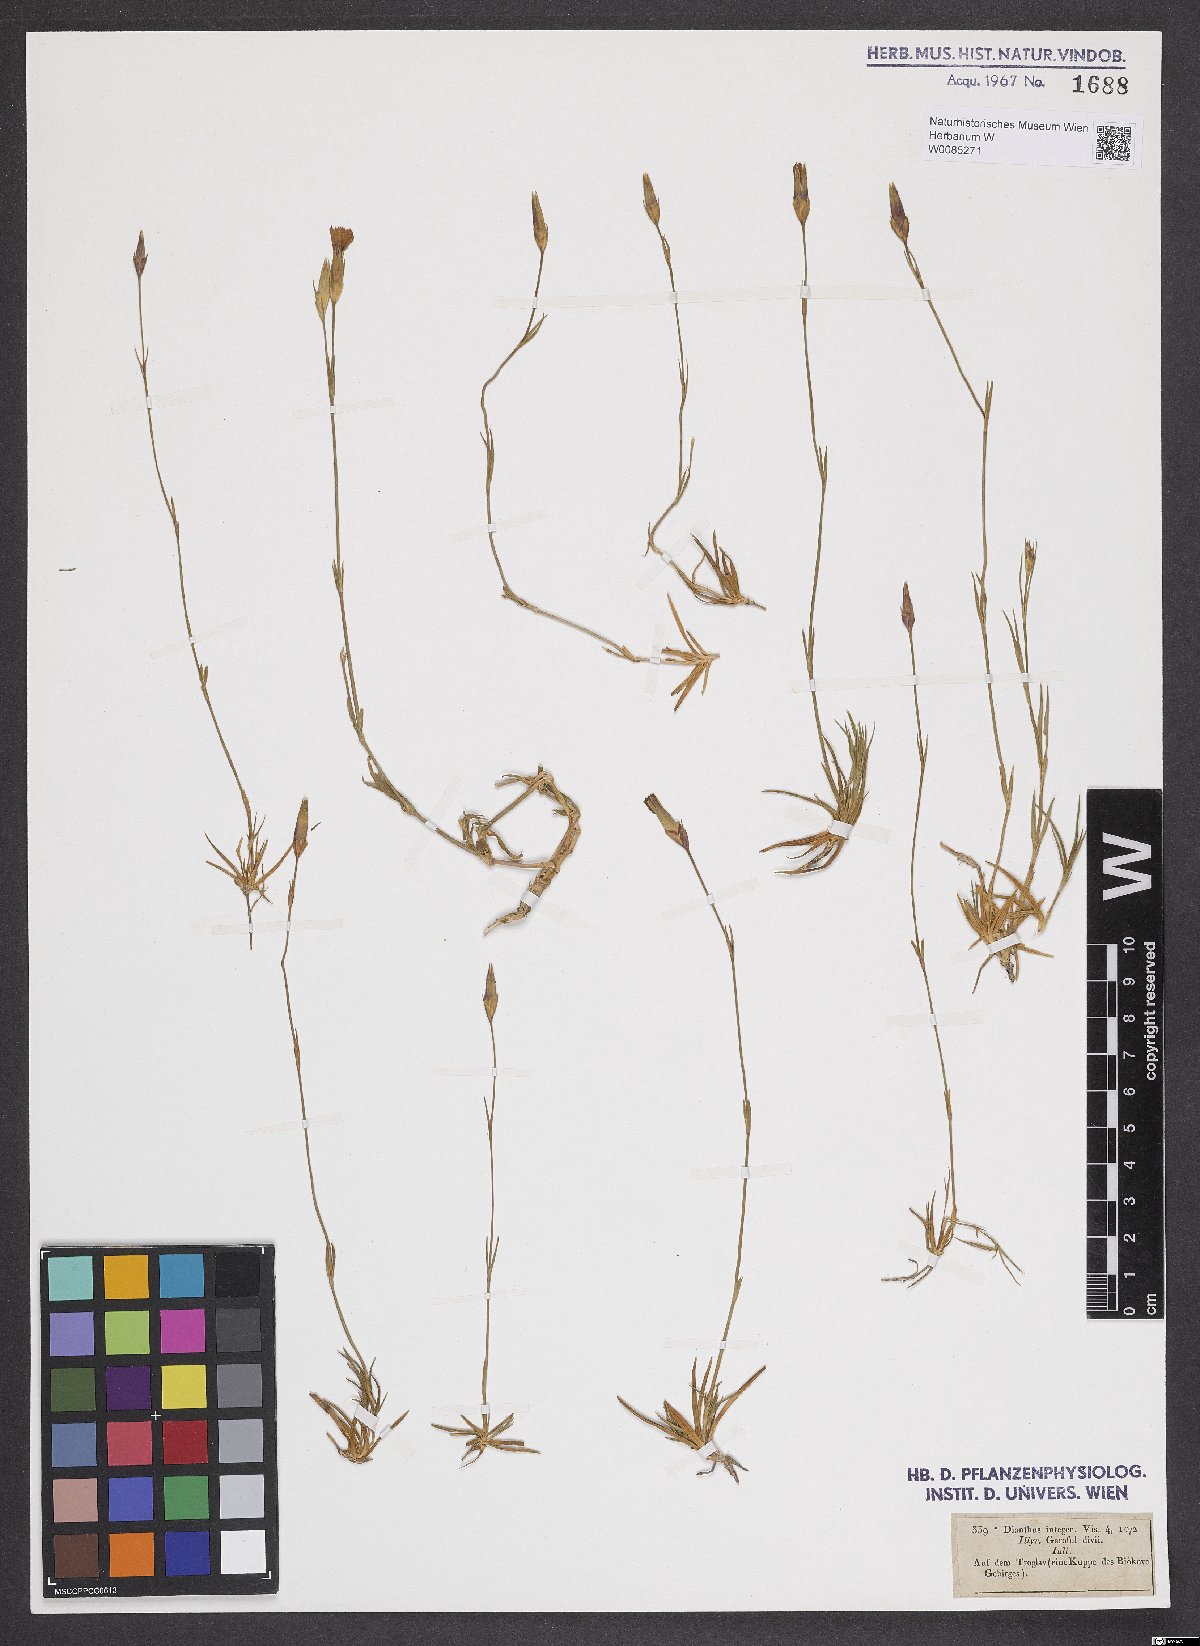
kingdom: Plantae
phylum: Tracheophyta
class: Magnoliopsida
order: Caryophyllales
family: Caryophyllaceae
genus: Dianthus
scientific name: Dianthus petraeus
